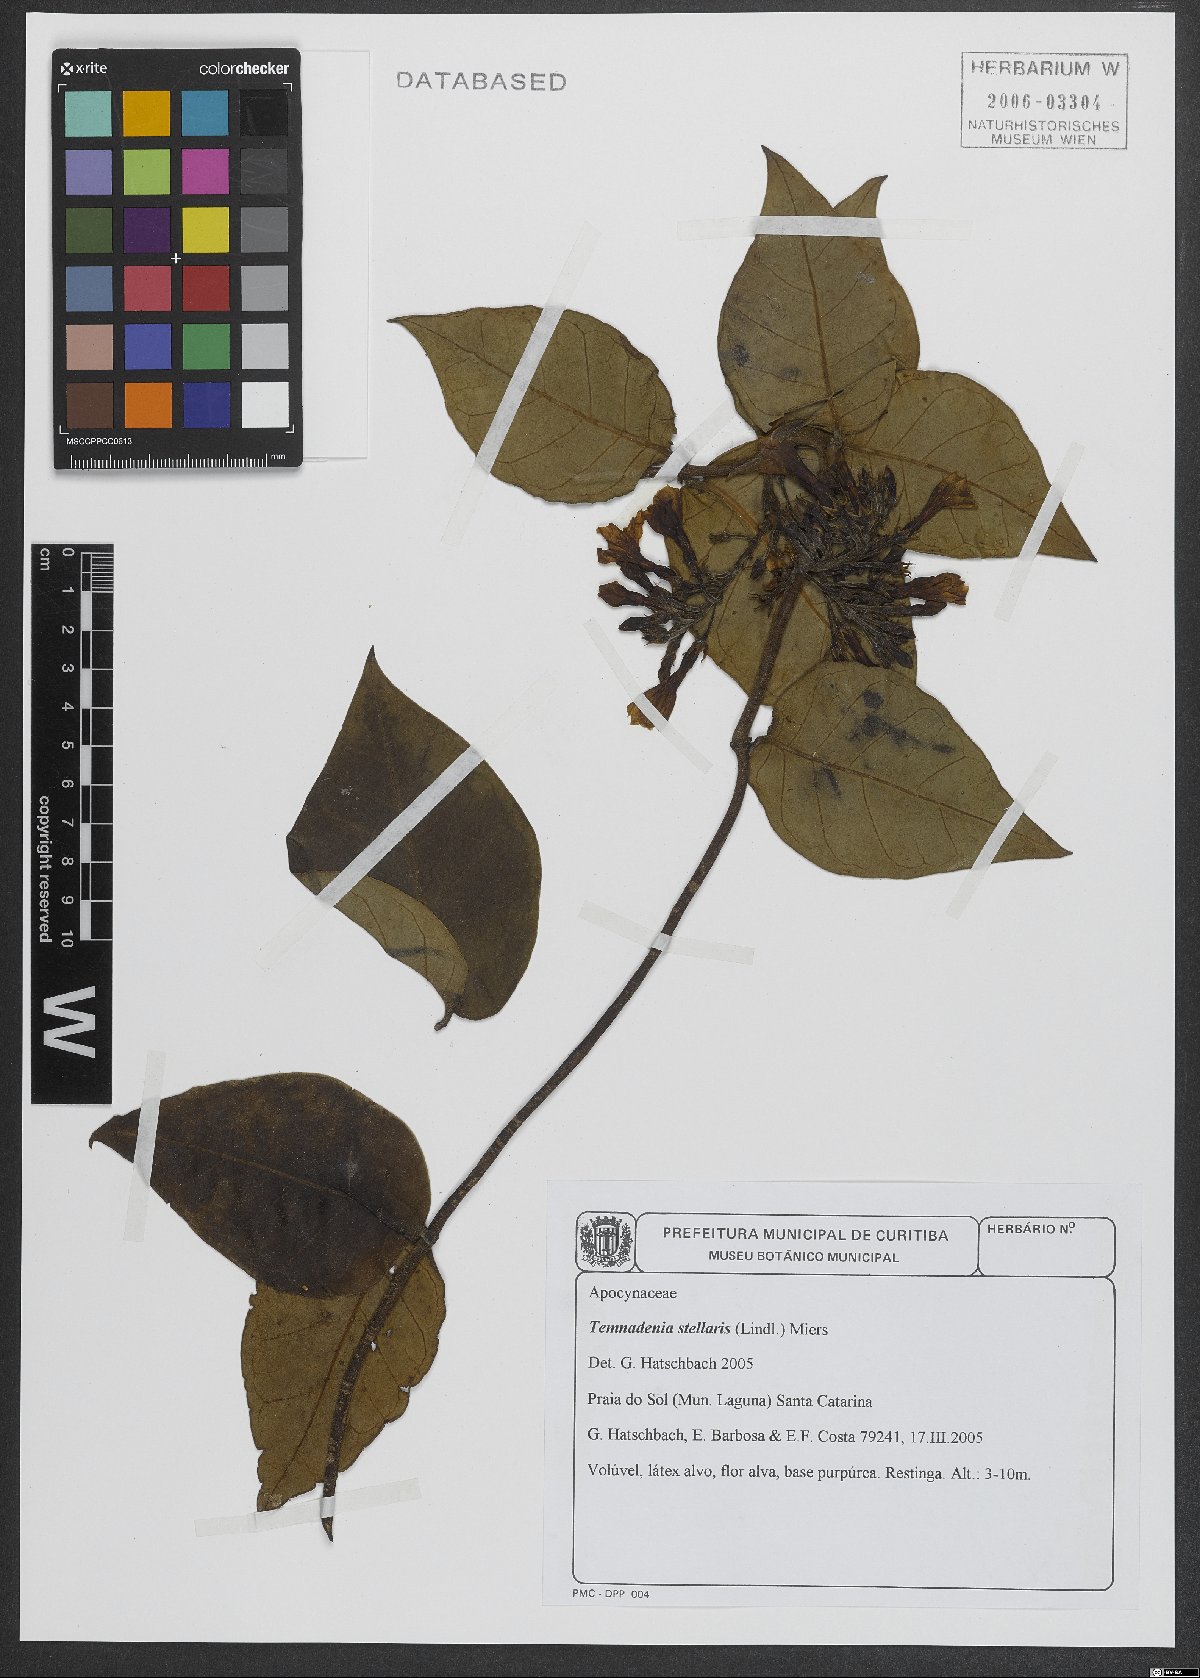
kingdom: Plantae
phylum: Tracheophyta
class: Magnoliopsida
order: Gentianales
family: Apocynaceae
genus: Temnadenia
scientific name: Temnadenia odorifera
